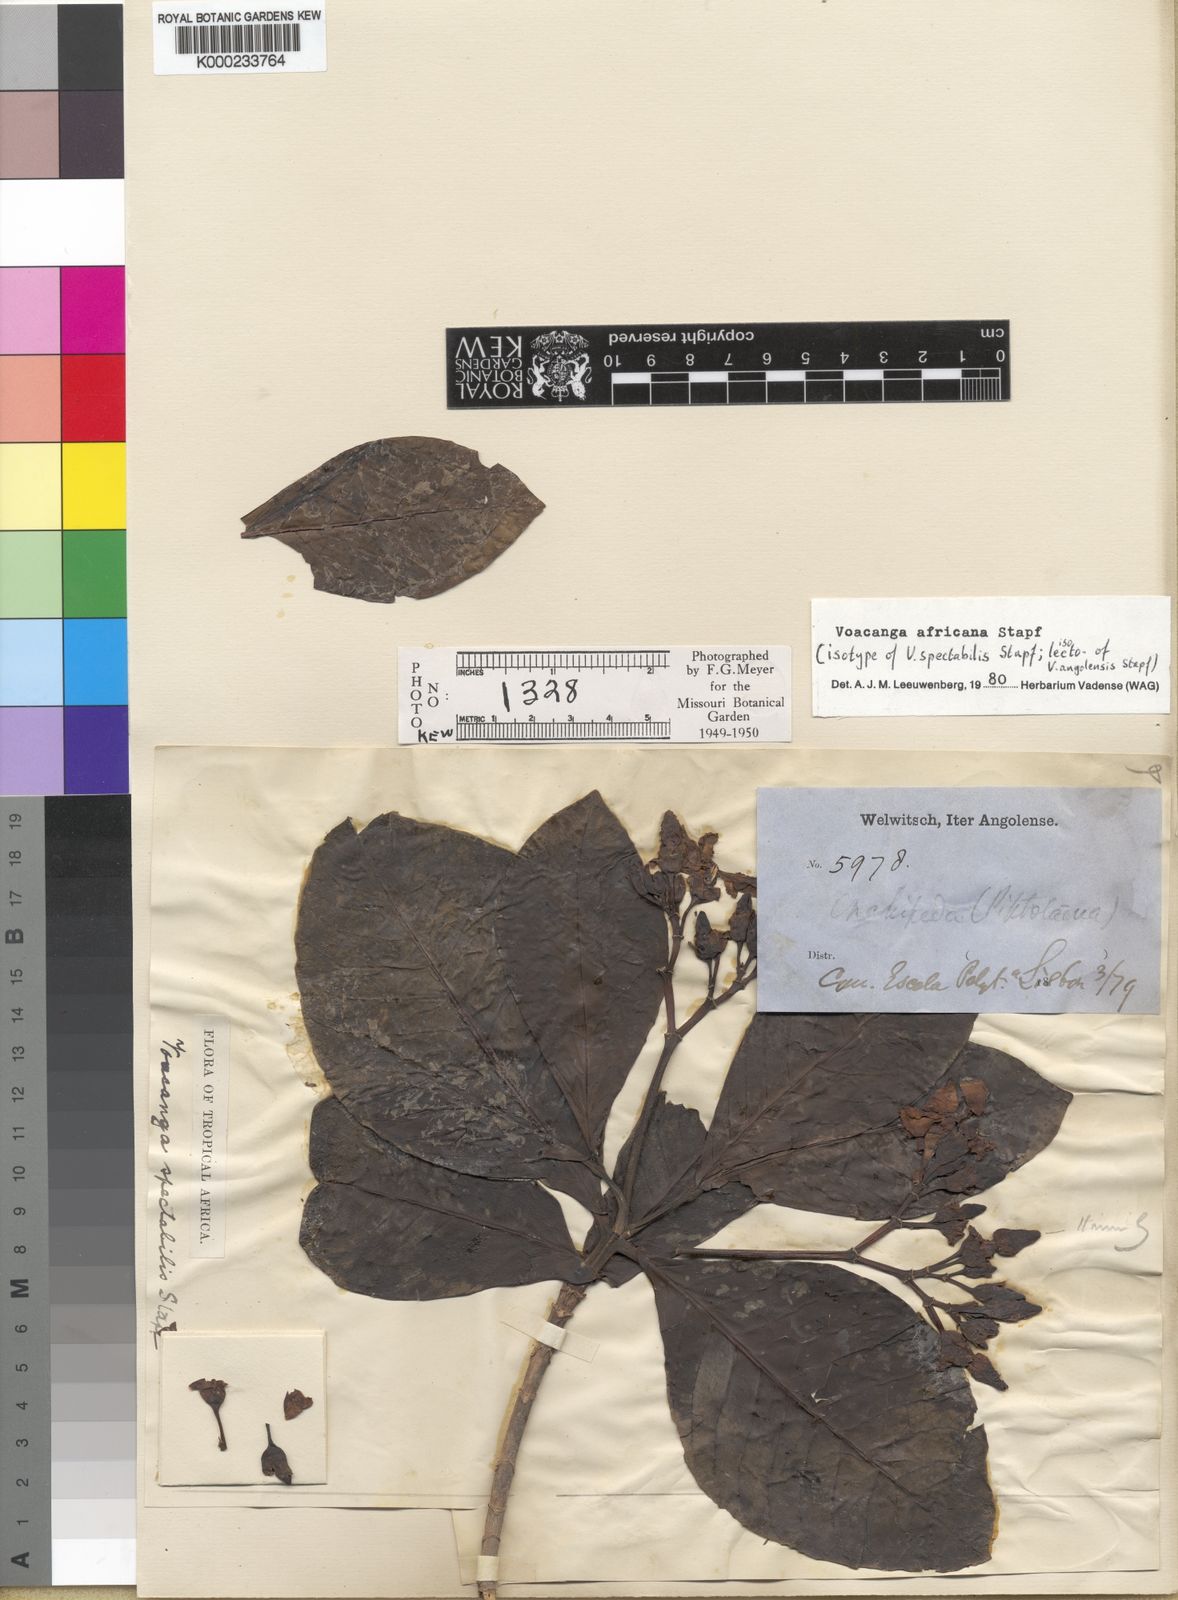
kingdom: Plantae
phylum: Tracheophyta
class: Magnoliopsida
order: Gentianales
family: Apocynaceae
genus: Voacanga
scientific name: Voacanga africana
